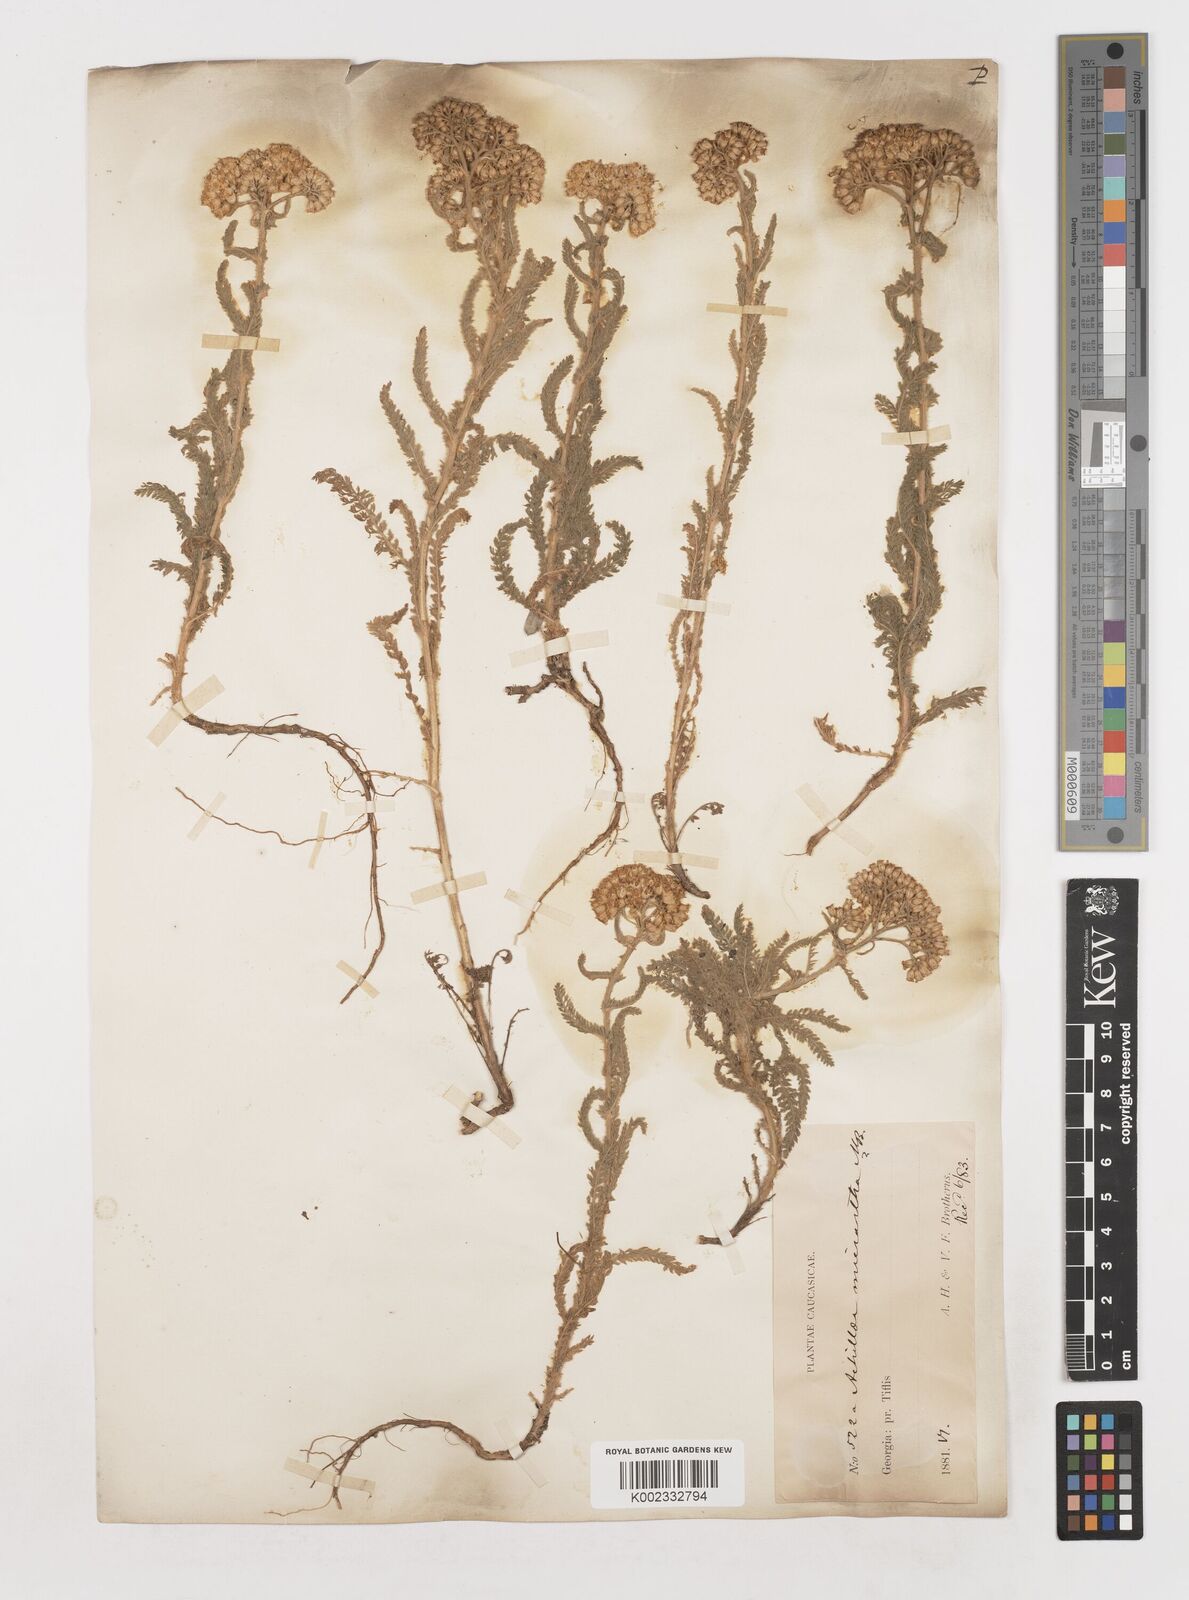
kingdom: Plantae
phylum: Tracheophyta
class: Magnoliopsida
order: Asterales
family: Asteraceae
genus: Achillea
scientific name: Achillea arabica
